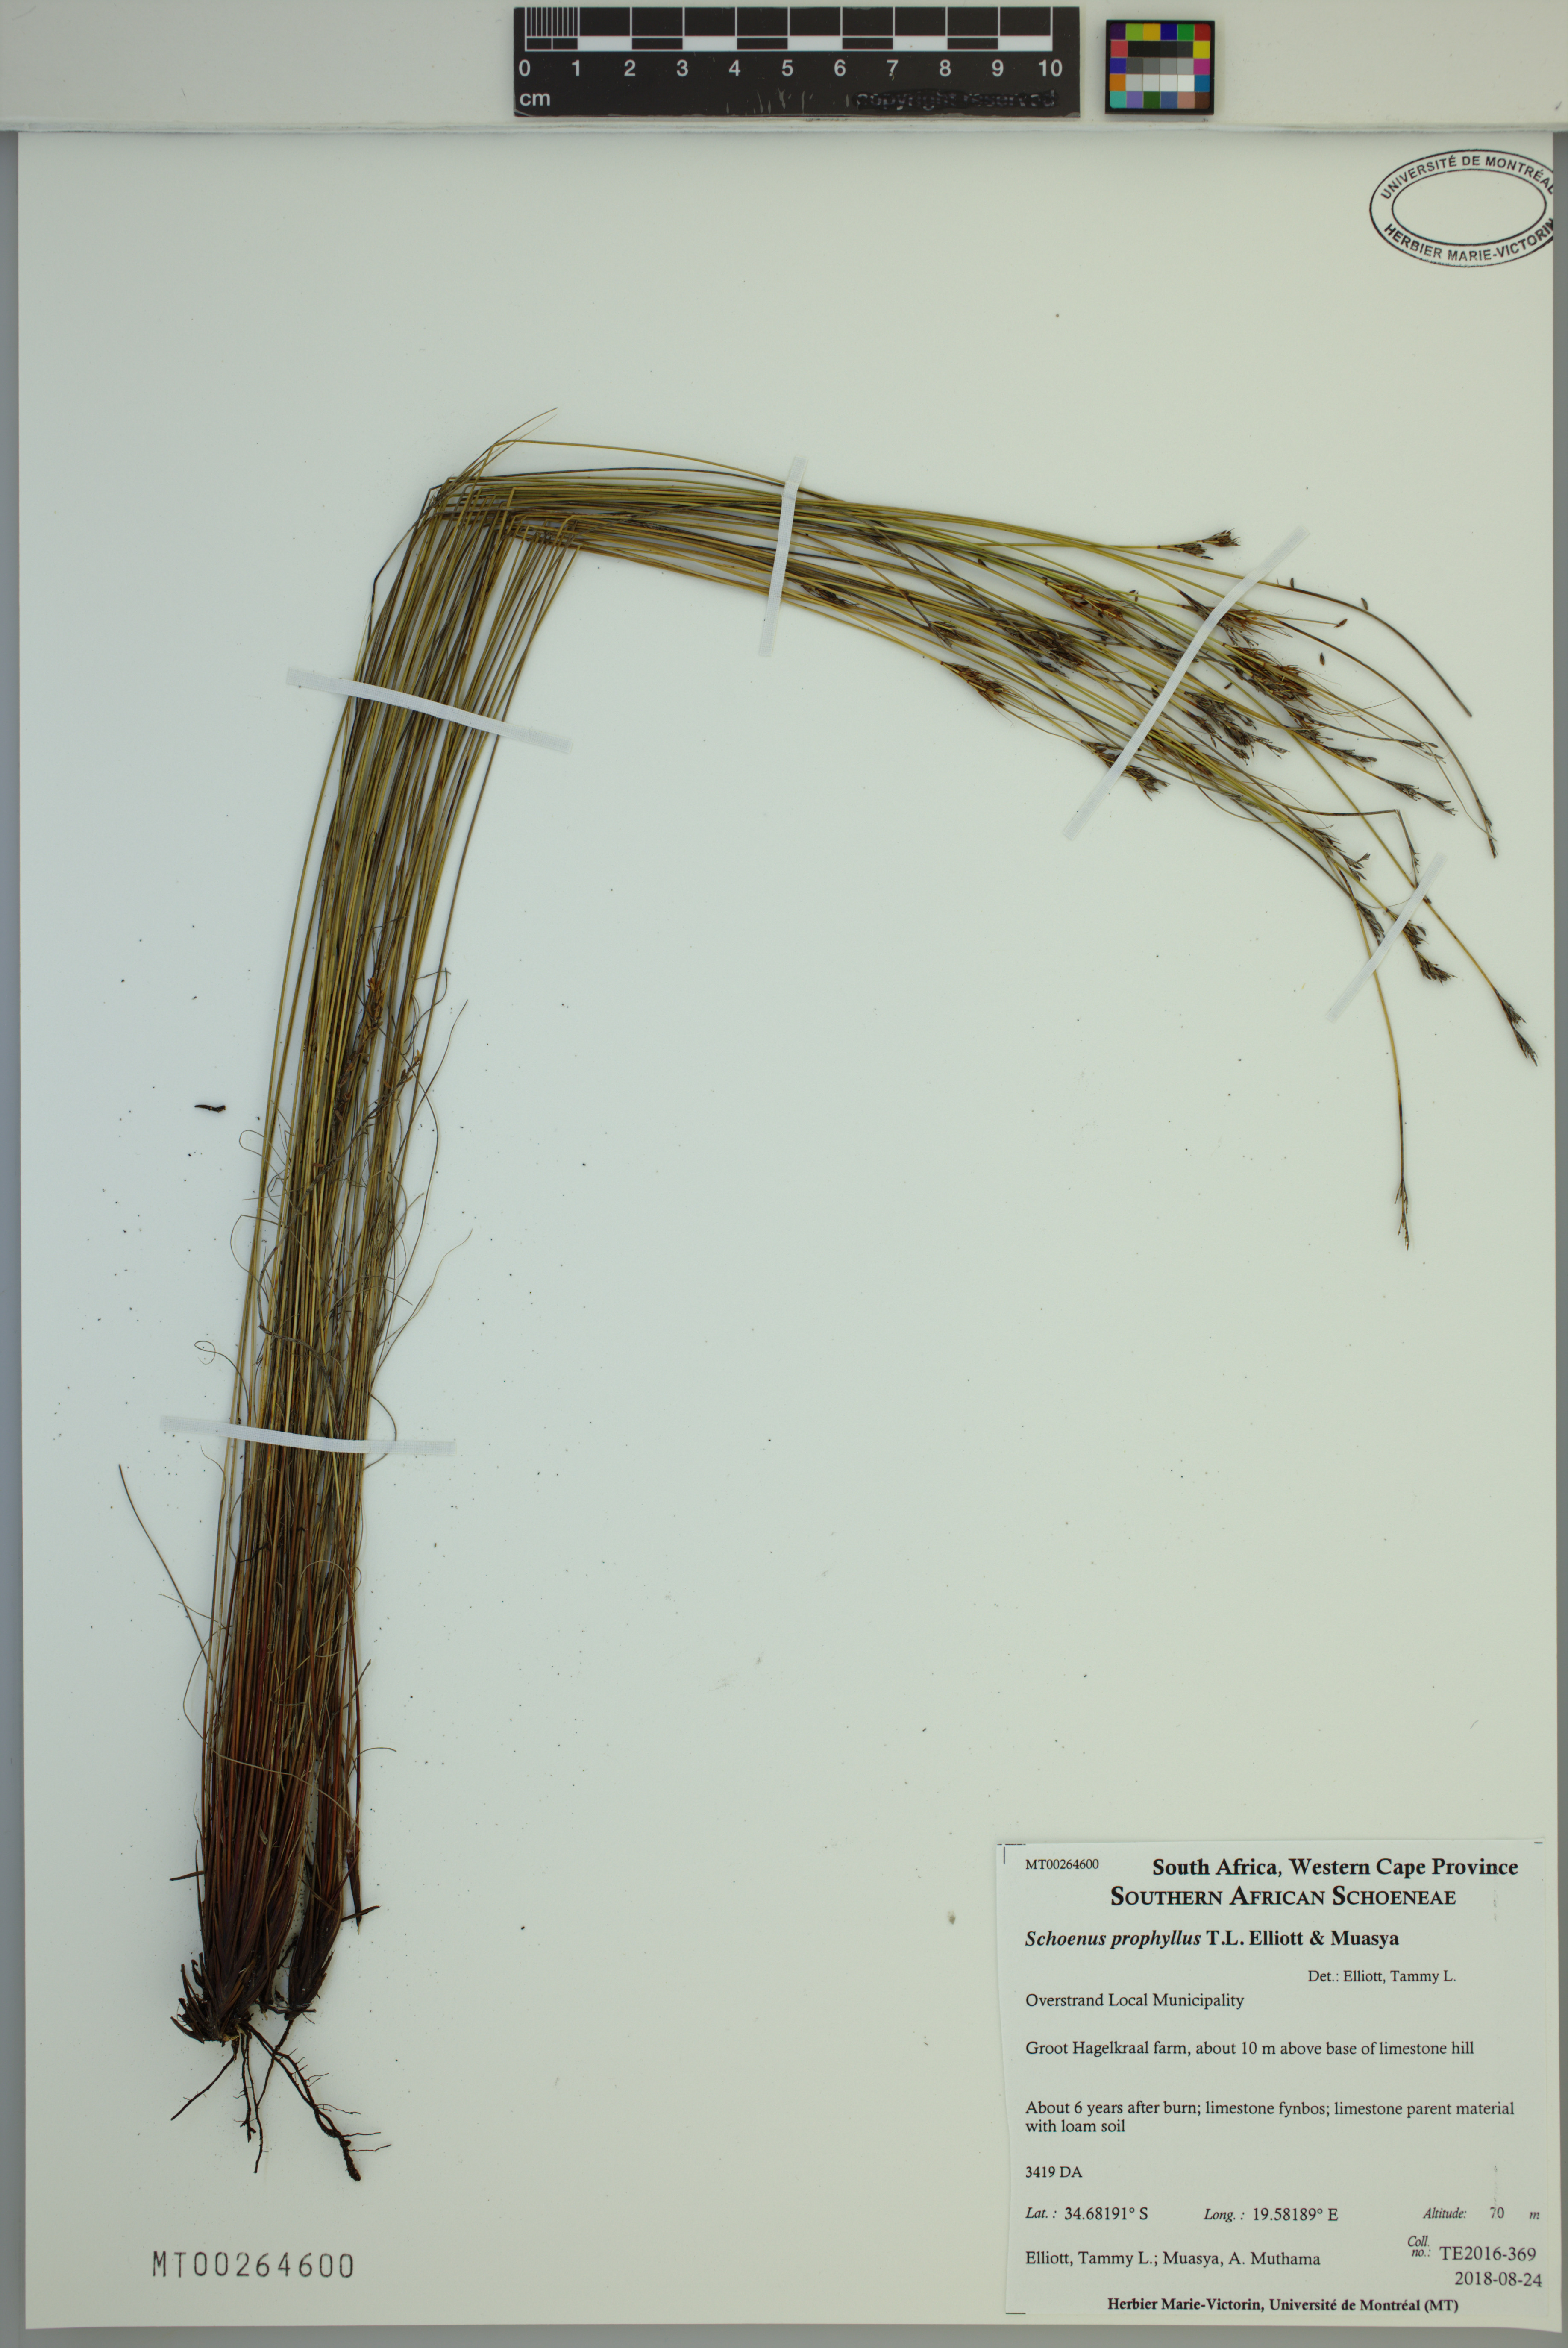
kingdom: Plantae
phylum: Tracheophyta
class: Liliopsida
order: Poales
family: Cyperaceae
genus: Schoenus
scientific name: Schoenus prophyllus
